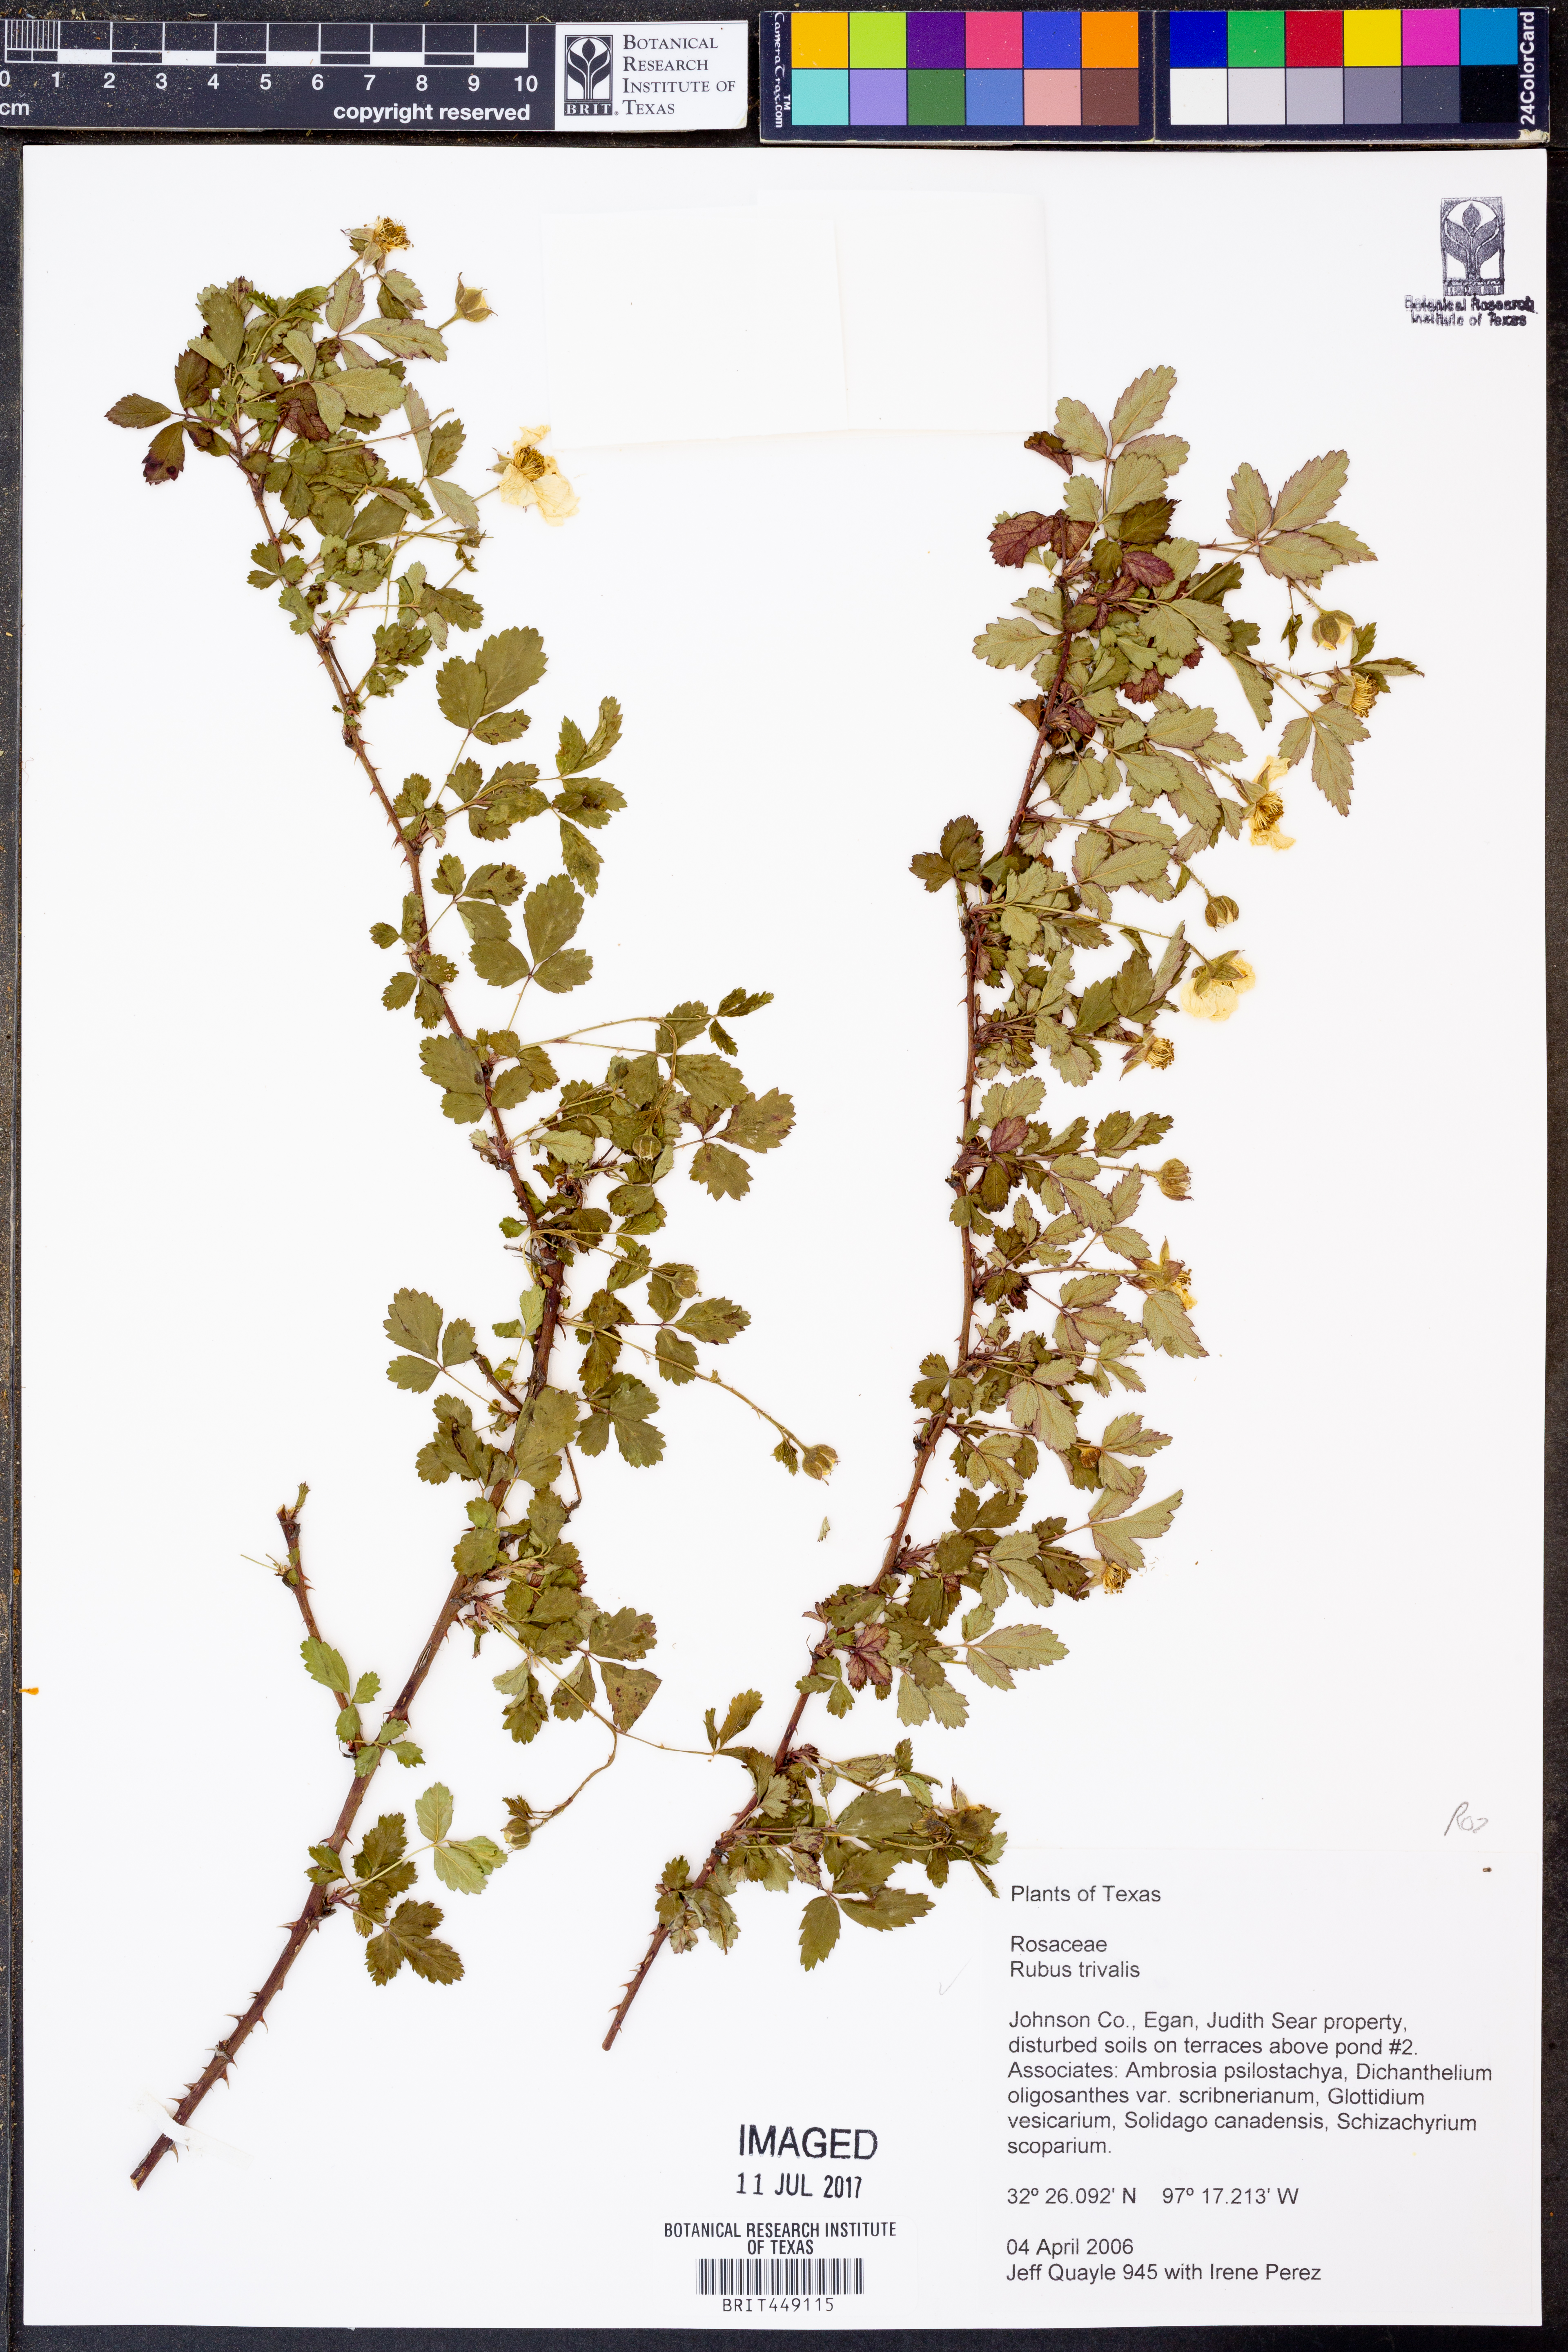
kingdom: Plantae
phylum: Tracheophyta
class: Magnoliopsida
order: Rosales
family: Rosaceae
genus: Rubus
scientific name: Rubus trivialis
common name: Southern dewberry
